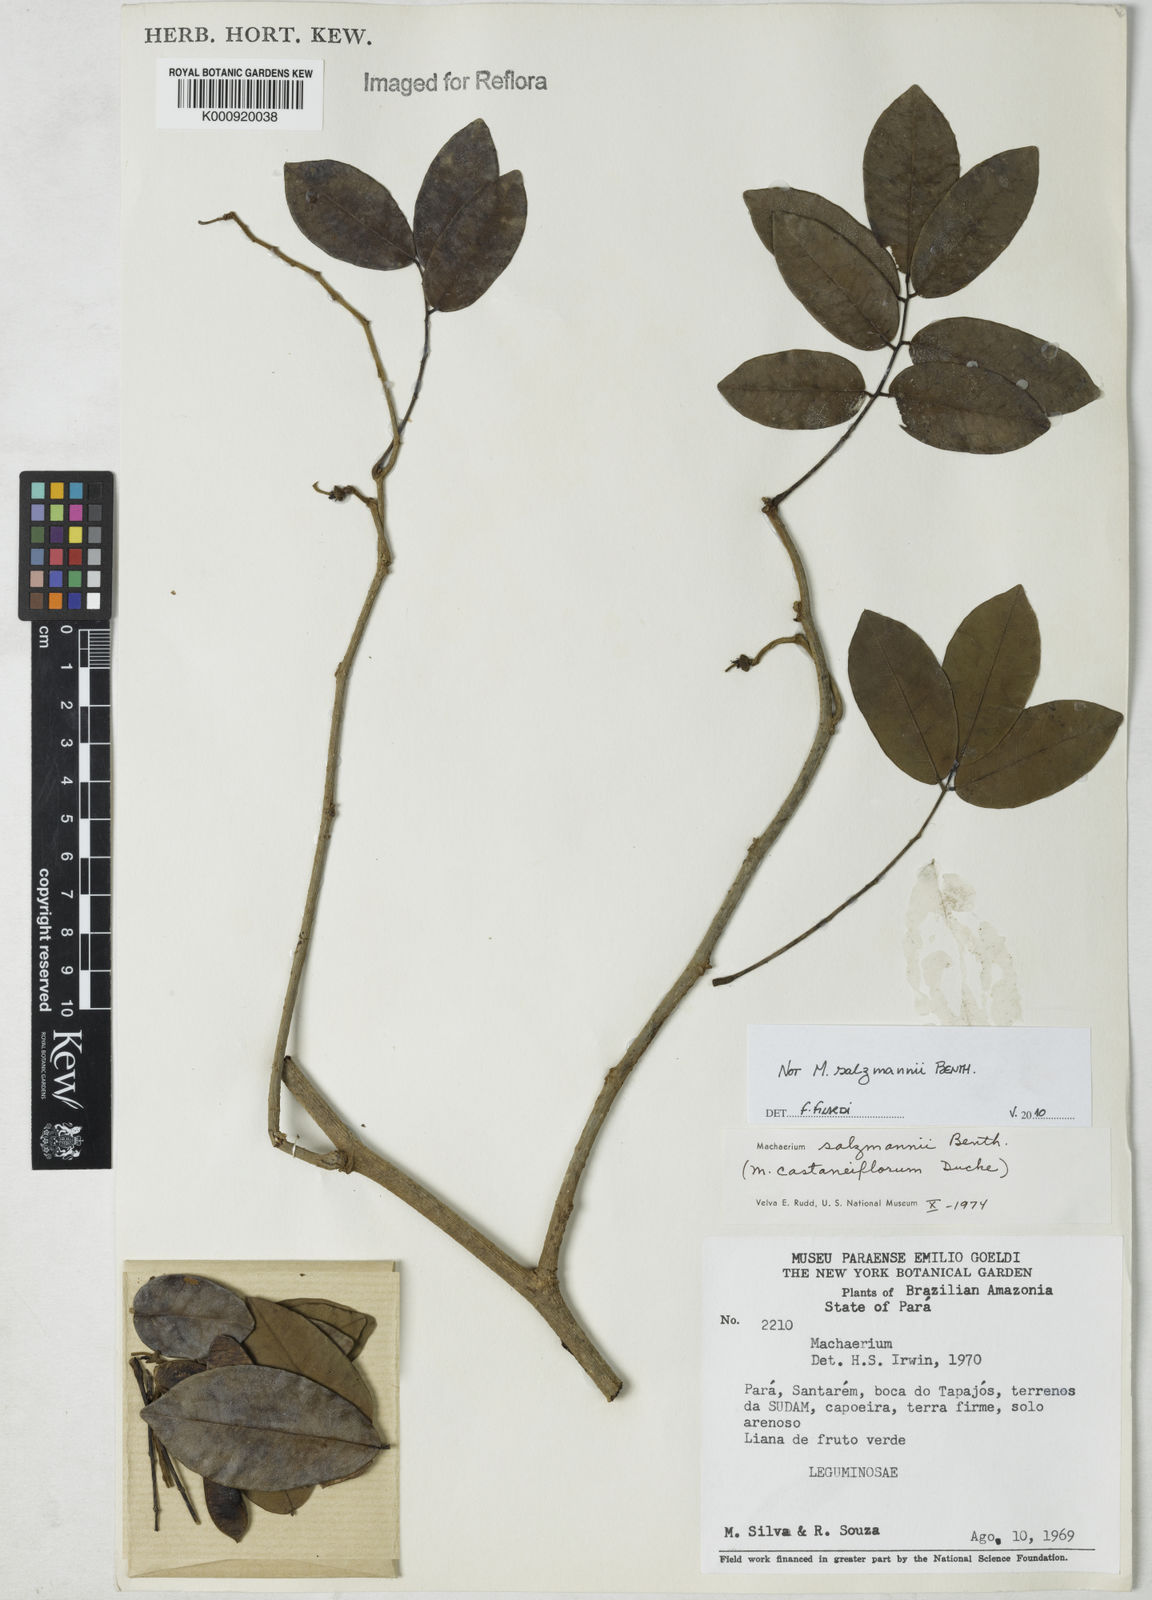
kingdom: Plantae
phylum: Tracheophyta
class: Magnoliopsida
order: Fabales
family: Fabaceae
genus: Machaerium
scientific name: Machaerium
